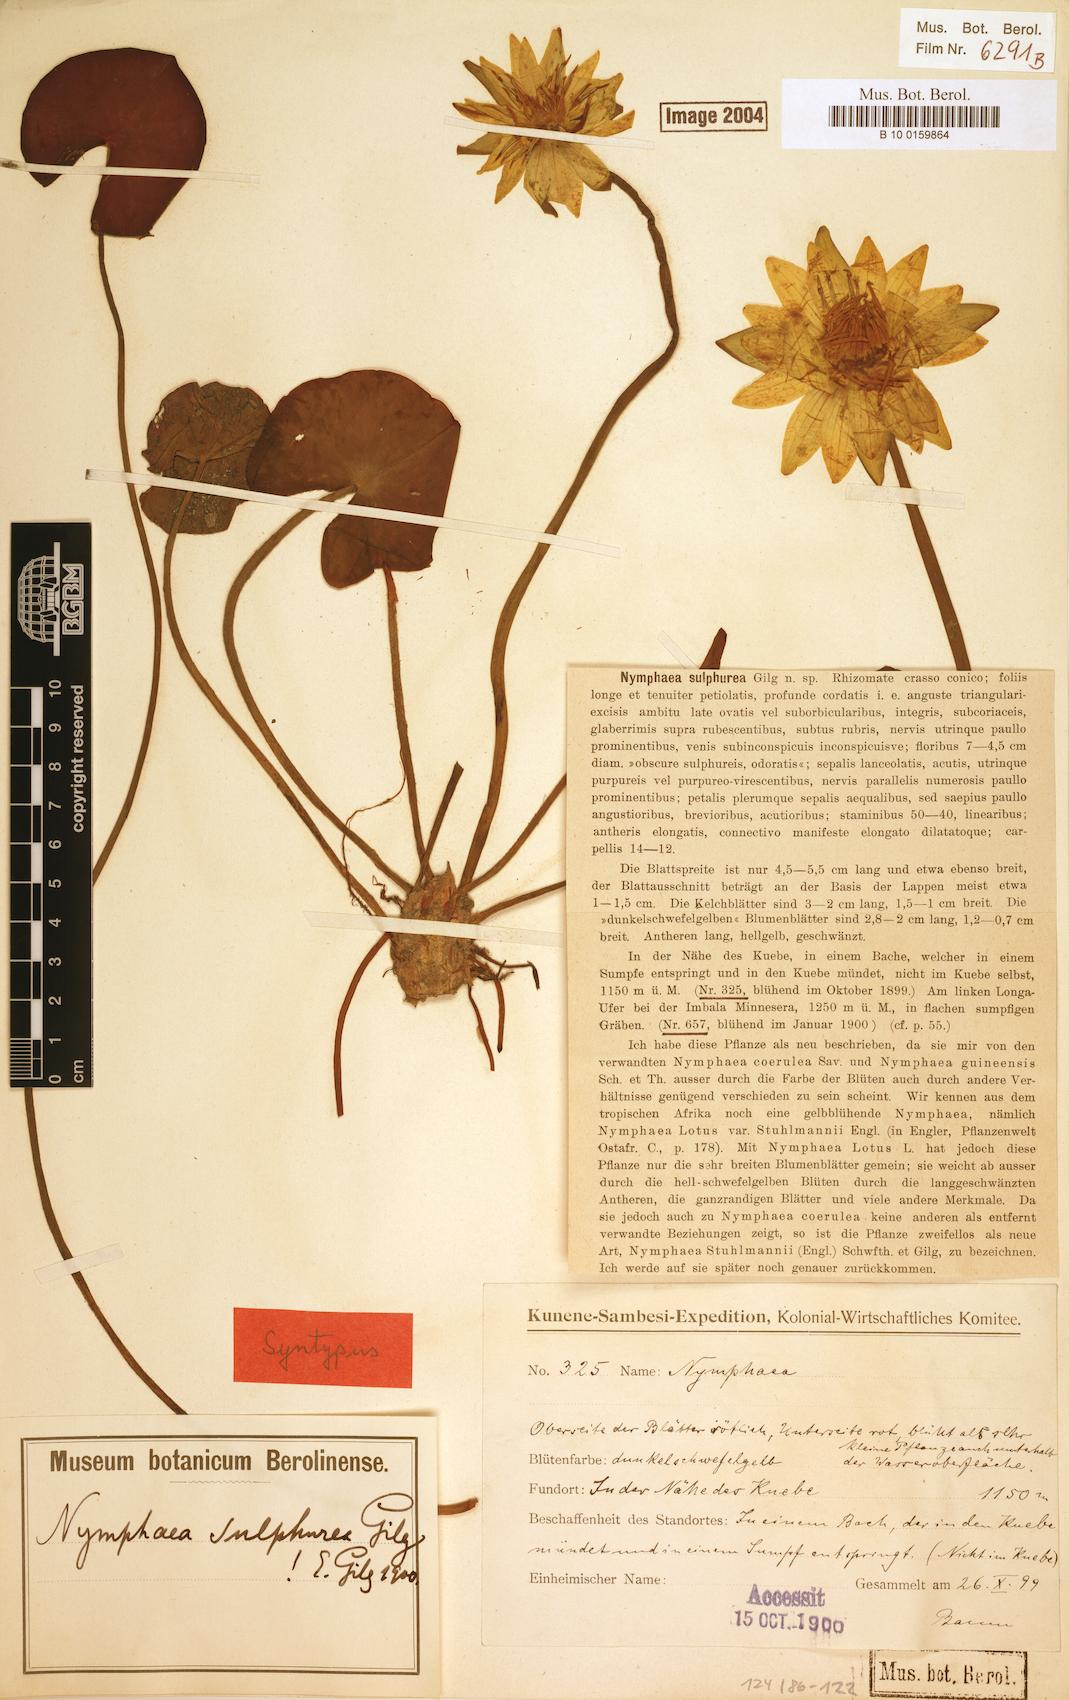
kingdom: Plantae
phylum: Tracheophyta
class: Magnoliopsida
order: Nymphaeales
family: Nymphaeaceae
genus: Nymphaea
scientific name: Nymphaea sulphurea
